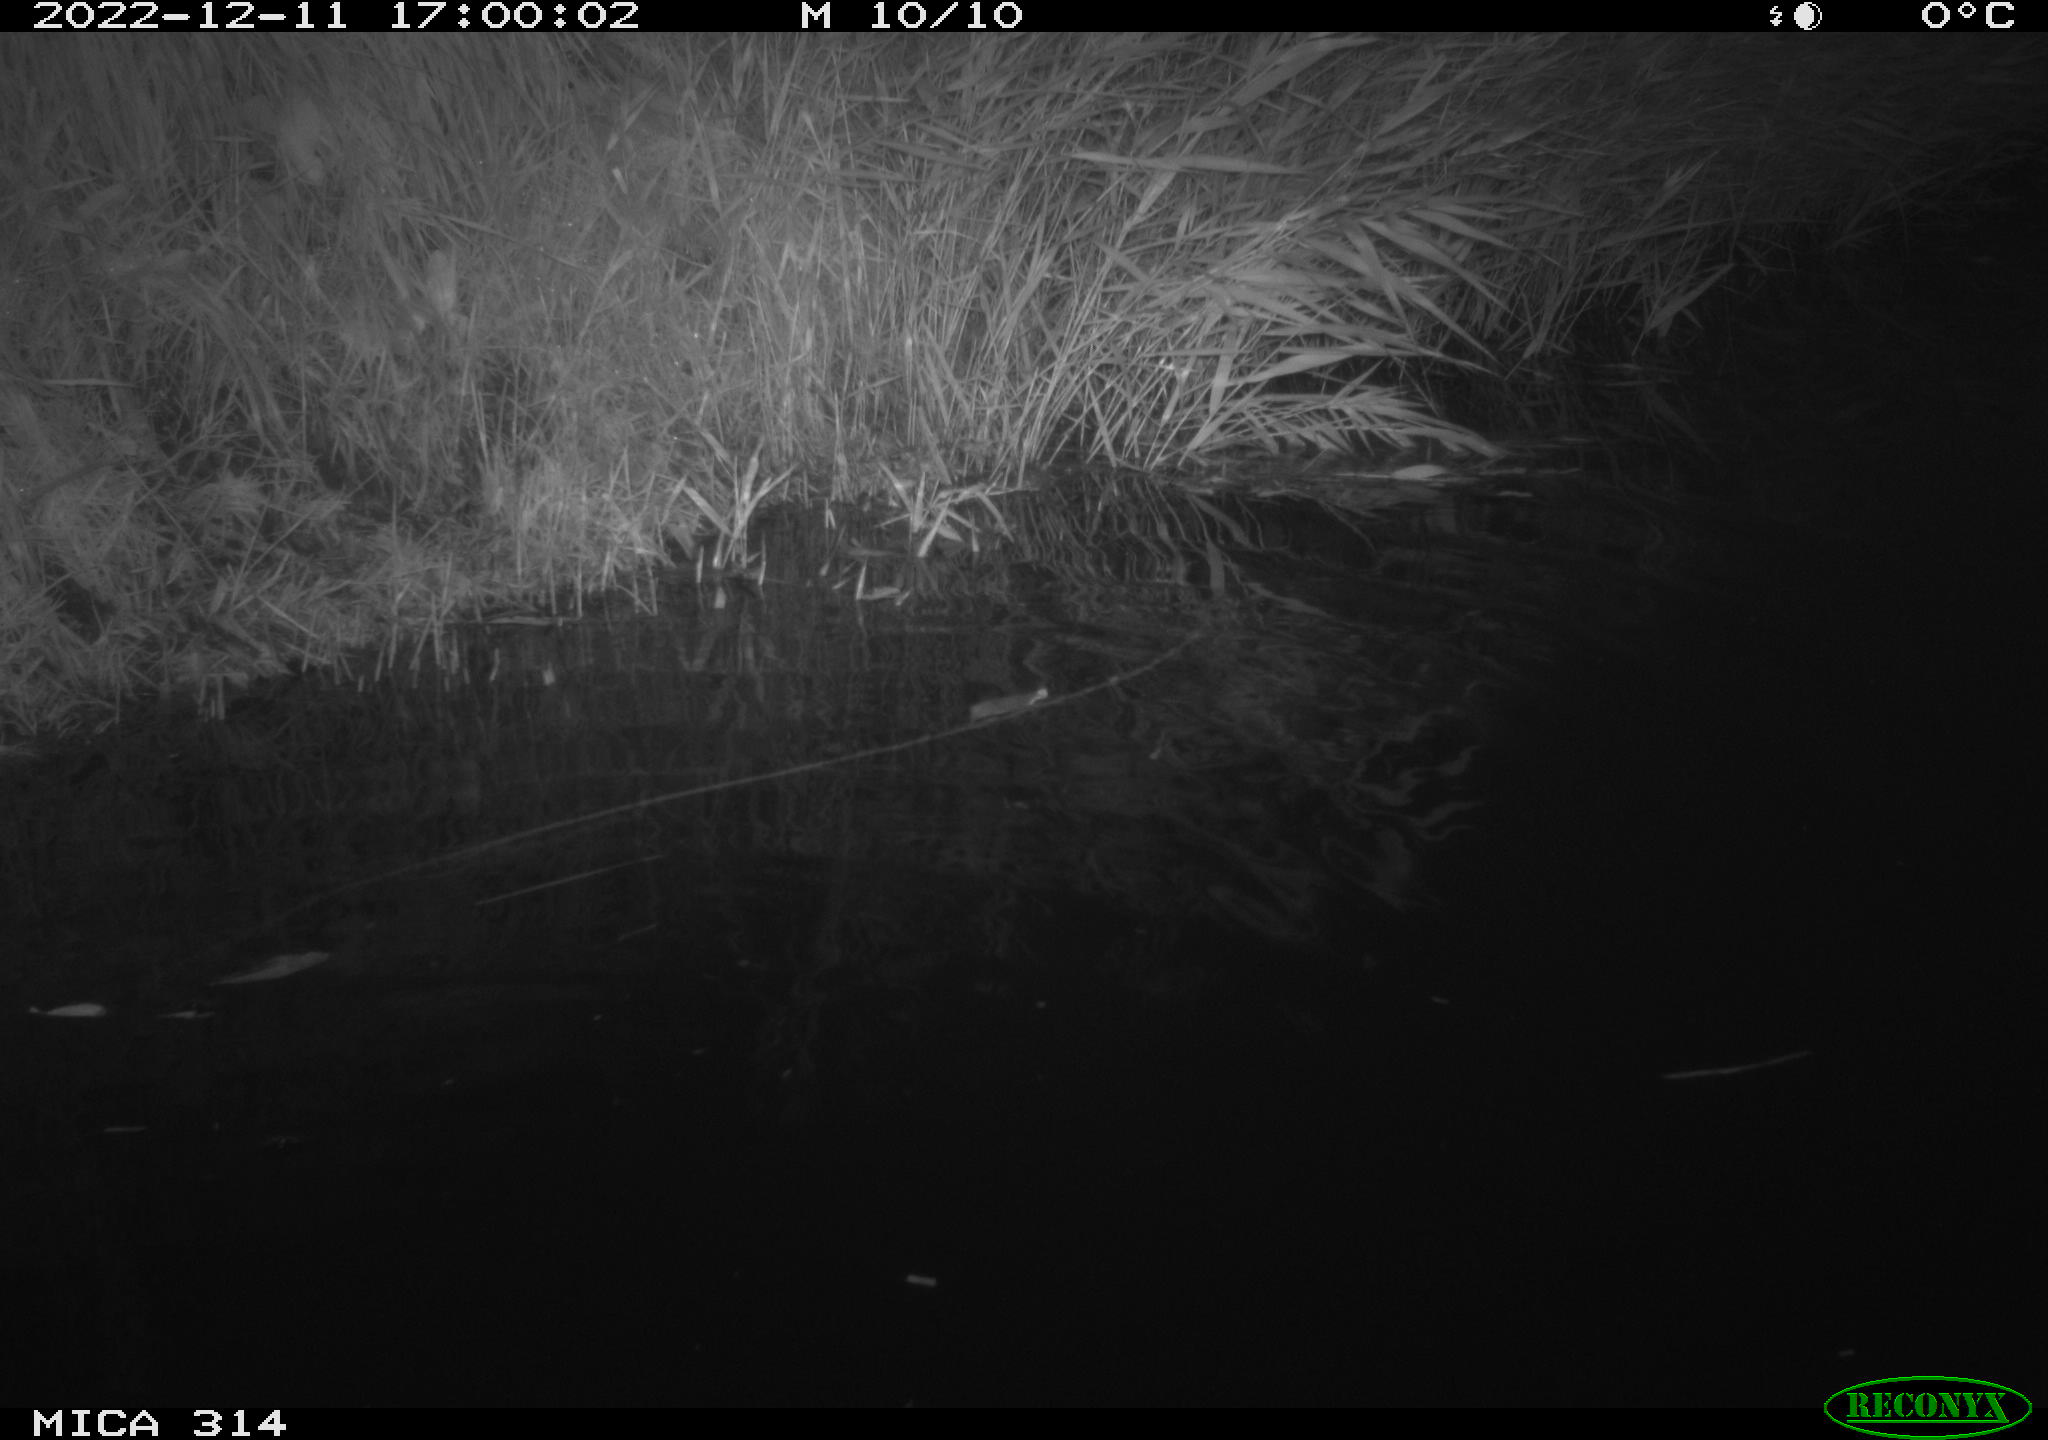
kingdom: Animalia
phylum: Chordata
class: Mammalia
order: Rodentia
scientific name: Rodentia
